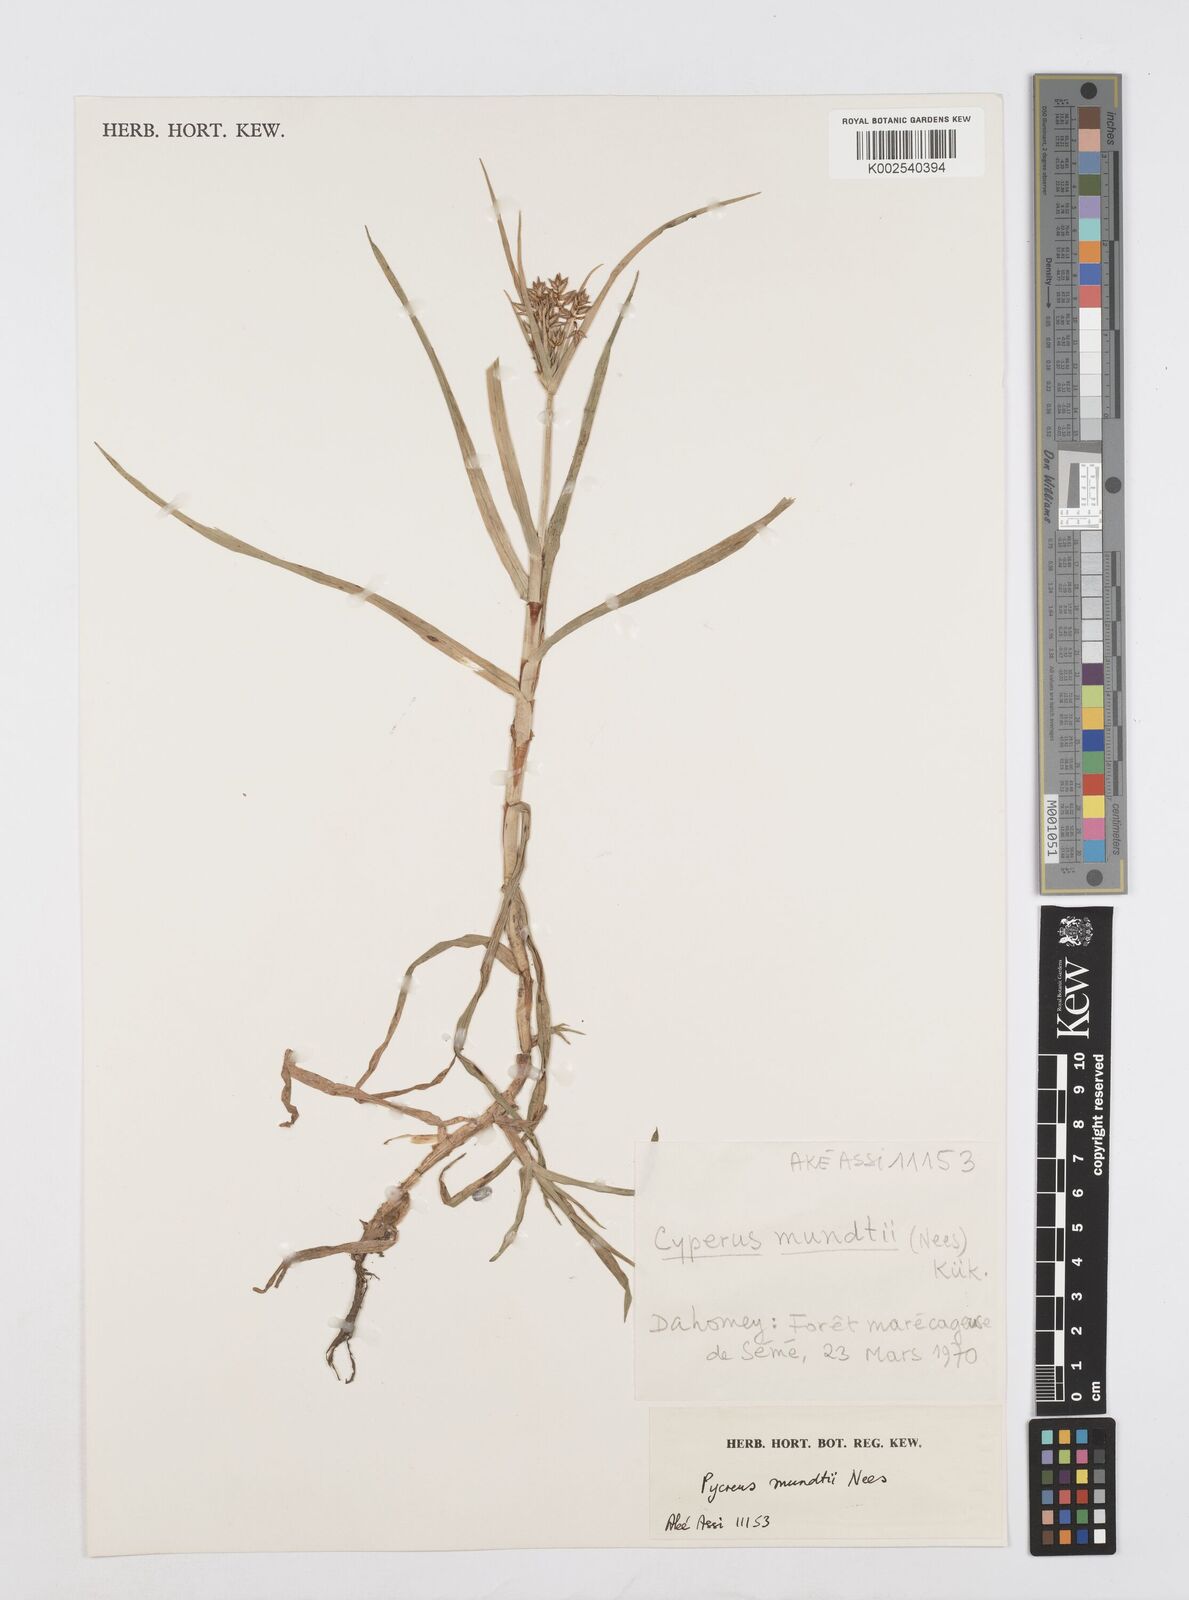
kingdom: Plantae
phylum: Tracheophyta
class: Liliopsida
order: Poales
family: Cyperaceae
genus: Cyperus
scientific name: Cyperus mundii
